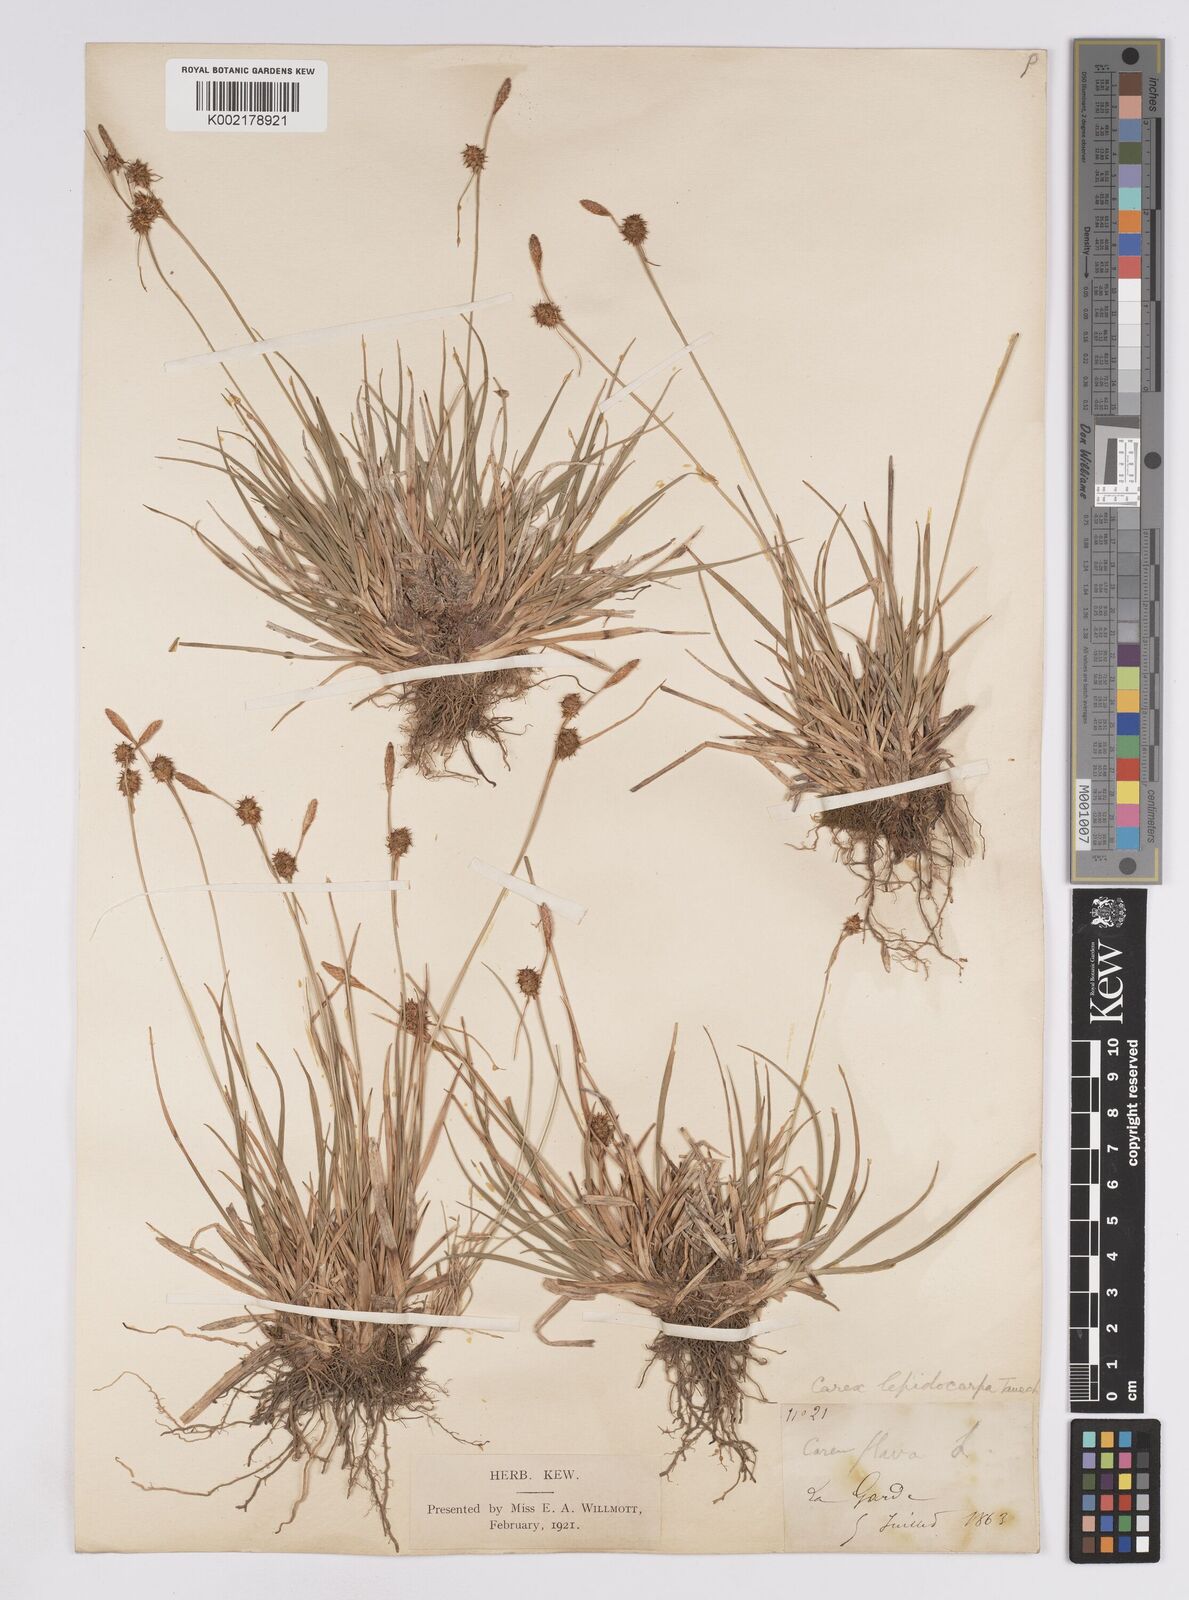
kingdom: Plantae
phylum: Tracheophyta
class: Liliopsida
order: Poales
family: Cyperaceae
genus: Carex
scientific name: Carex lepidocarpa
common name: Long-stalked yellow-sedge
